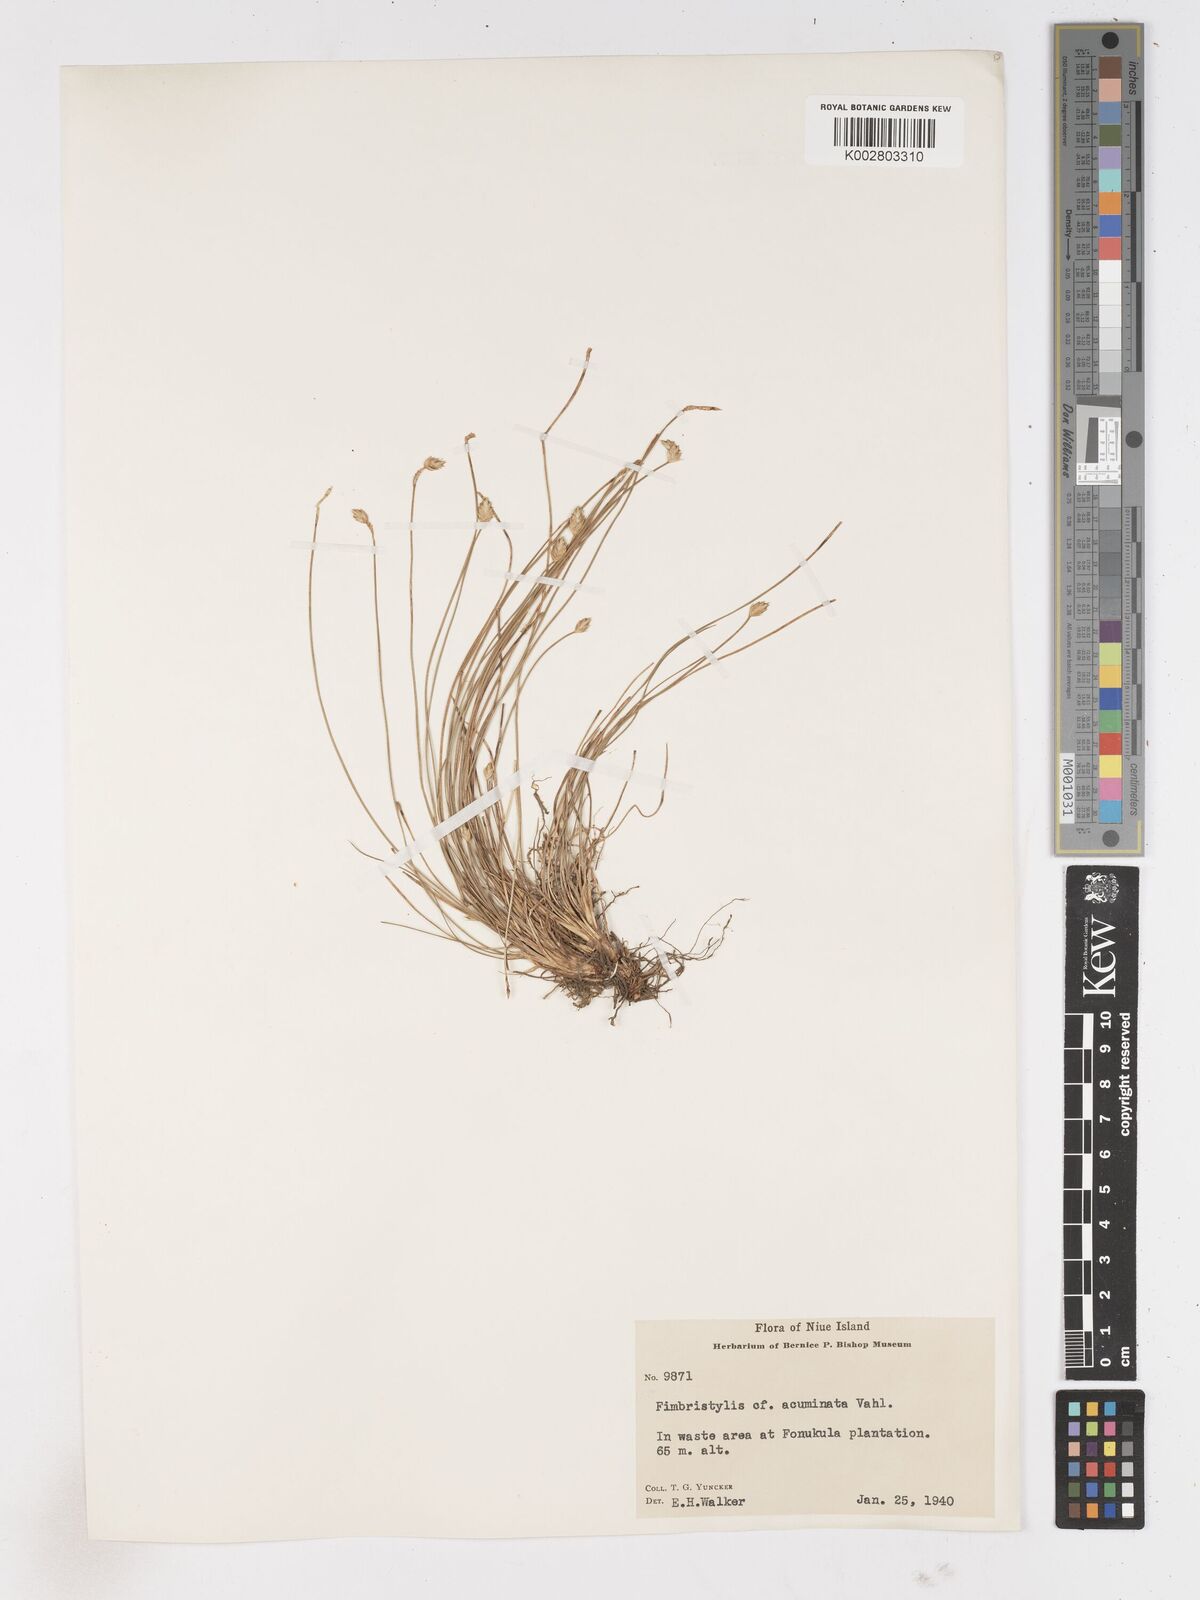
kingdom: Plantae
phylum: Tracheophyta
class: Liliopsida
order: Poales
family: Cyperaceae
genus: Abildgaardia
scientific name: Abildgaardia ovata
